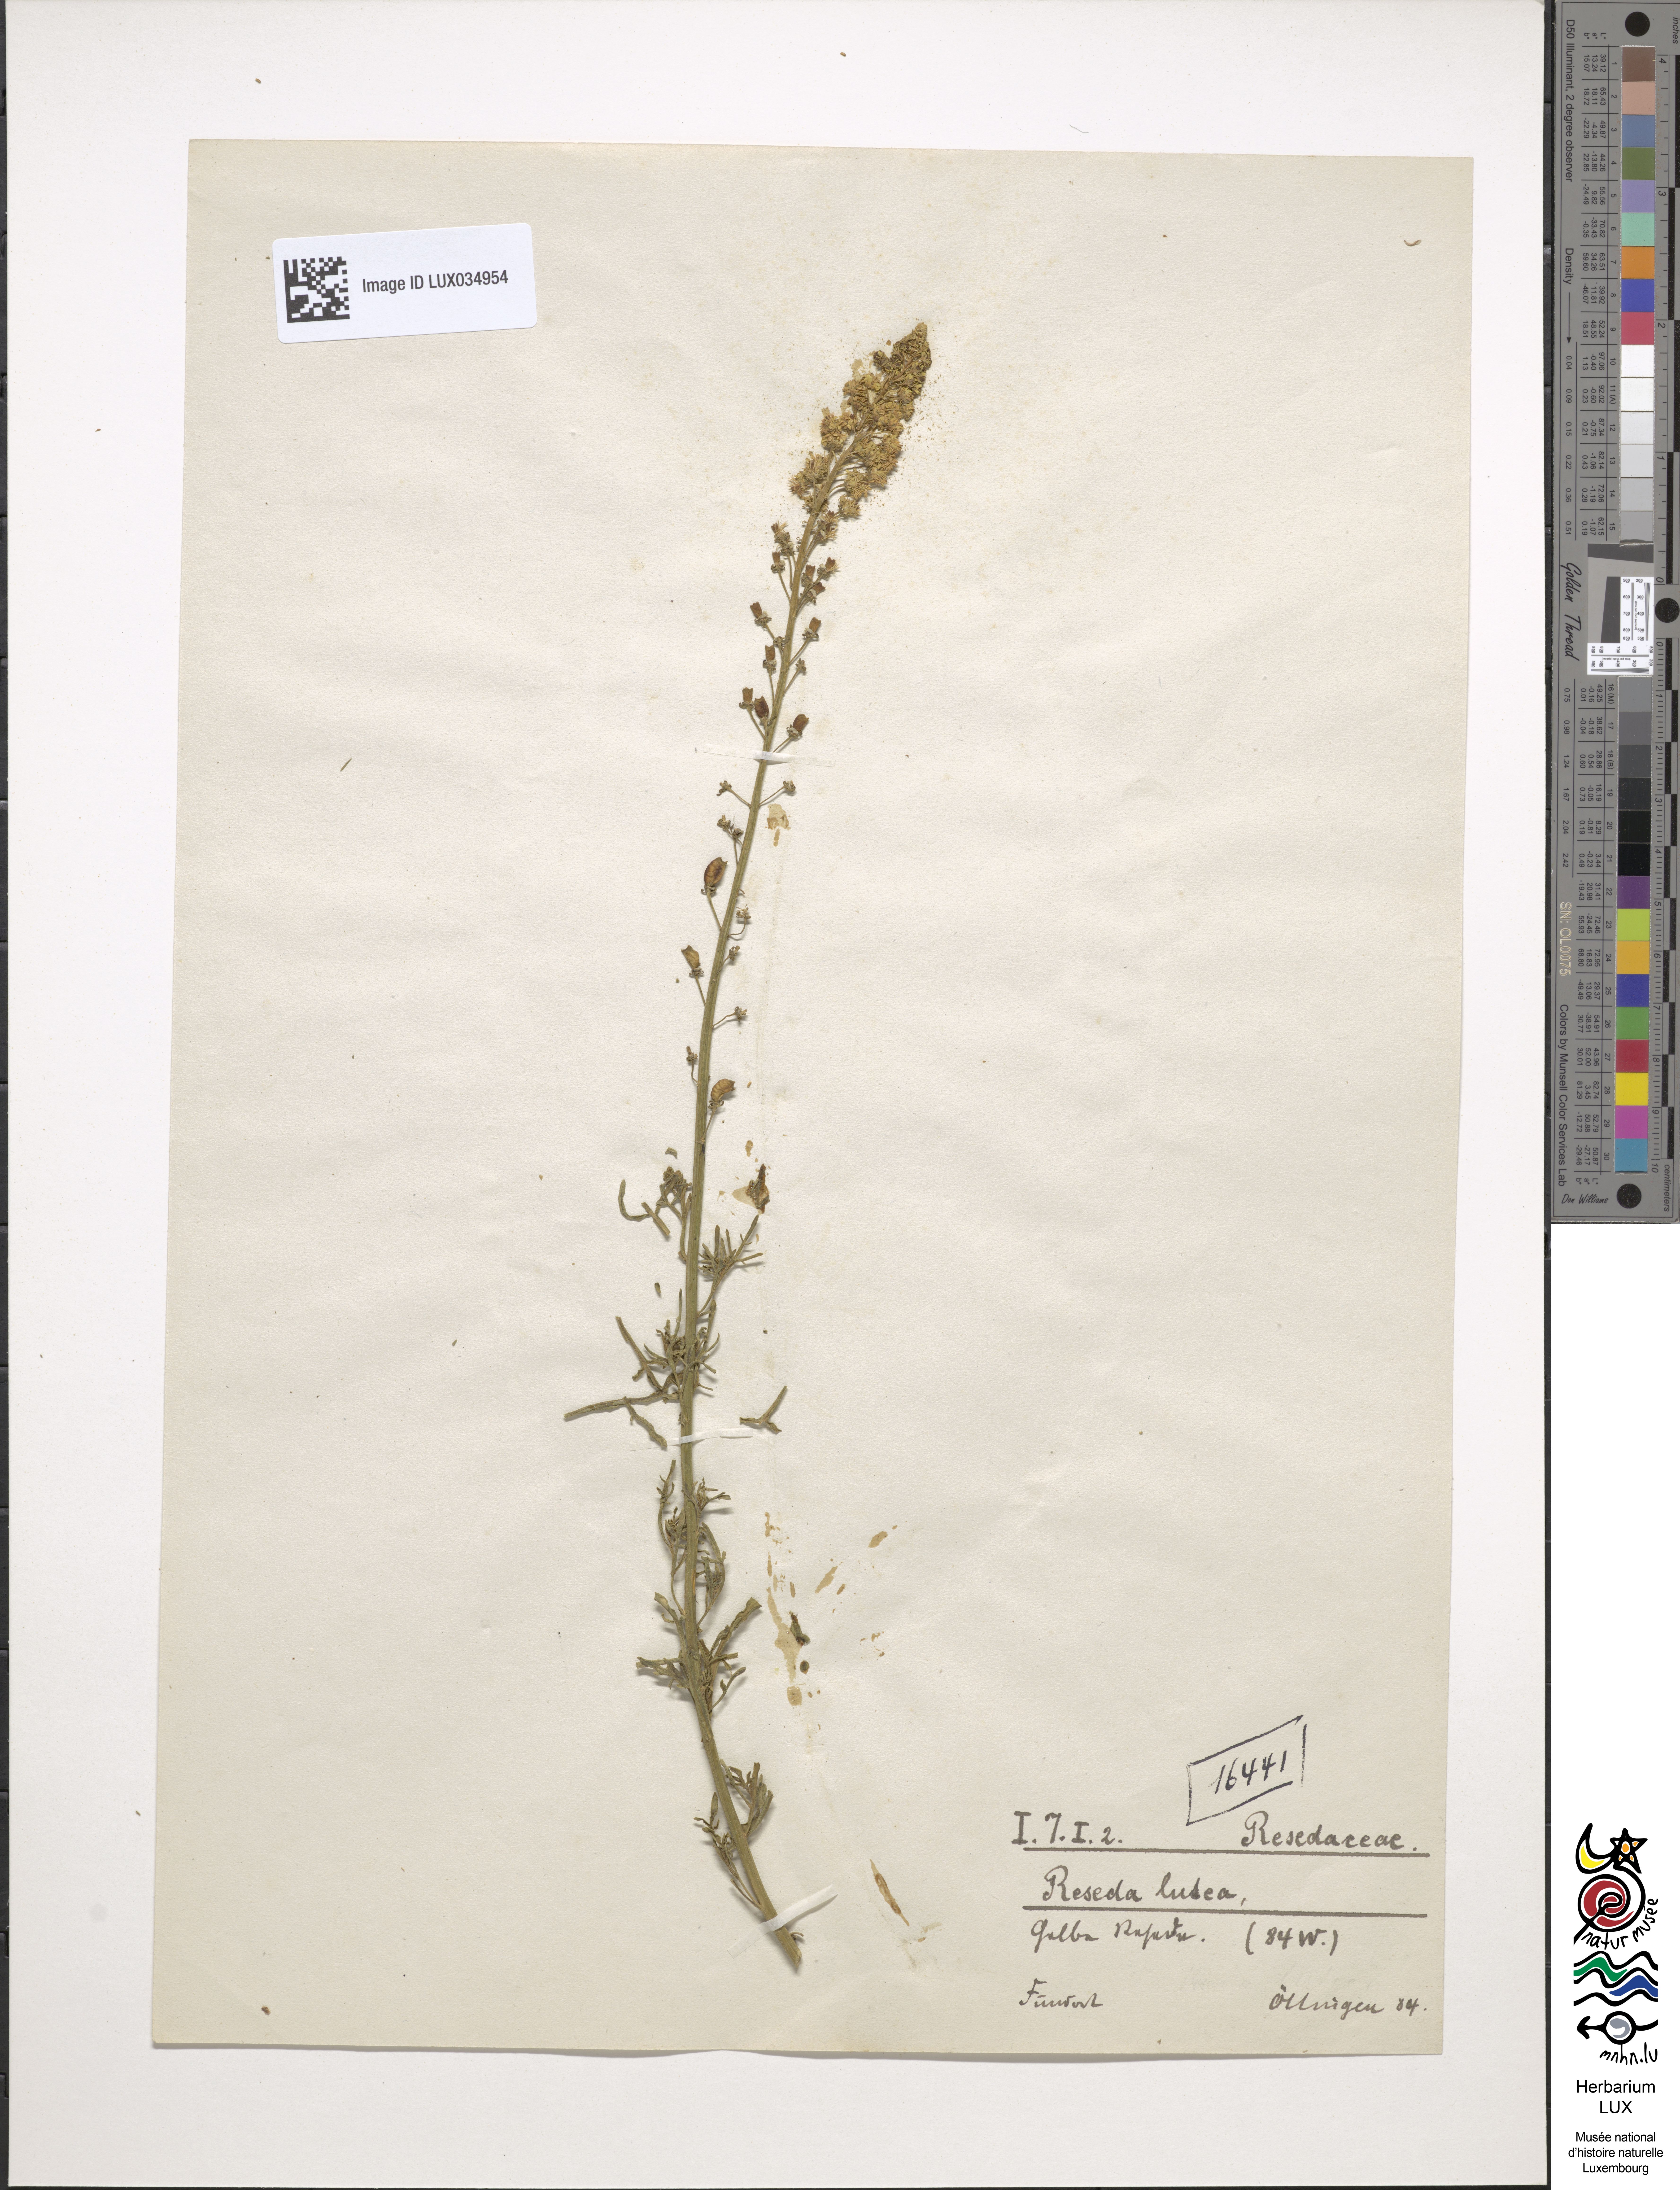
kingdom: Plantae
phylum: Tracheophyta
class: Magnoliopsida
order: Brassicales
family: Resedaceae
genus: Reseda
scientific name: Reseda lutea
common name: Wild mignonette
